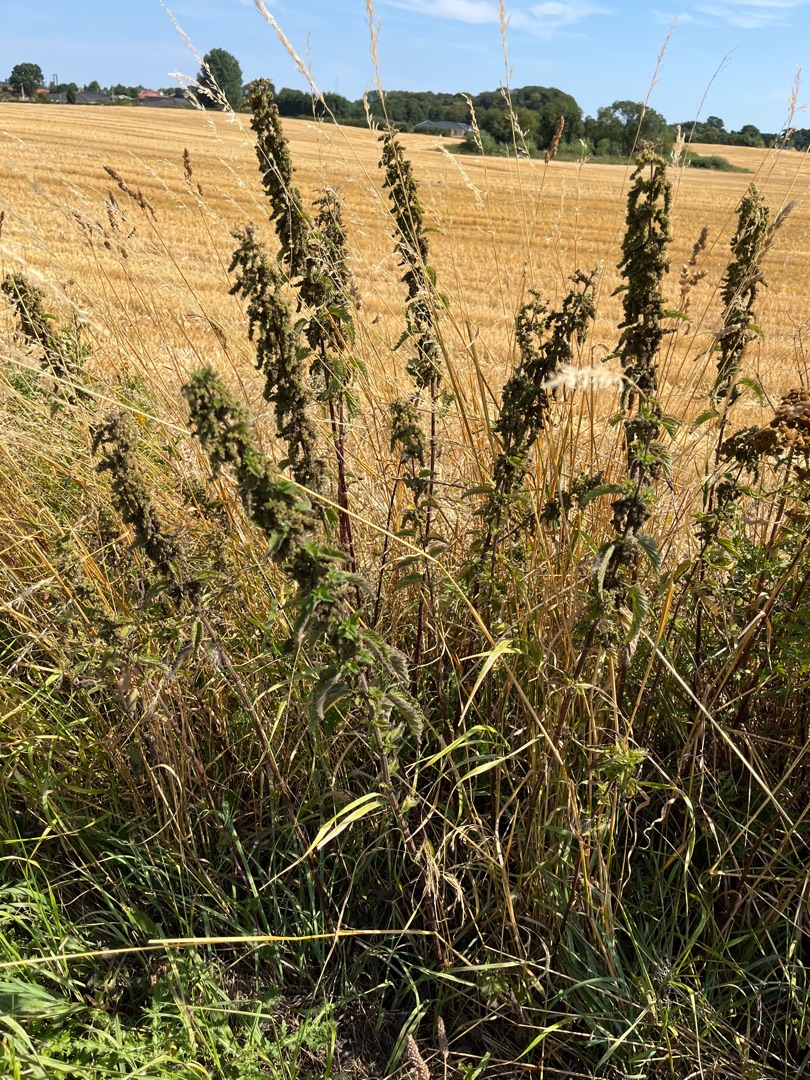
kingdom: Plantae
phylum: Tracheophyta
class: Magnoliopsida
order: Rosales
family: Urticaceae
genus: Urtica
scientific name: Urtica dioica
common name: Stor nælde
